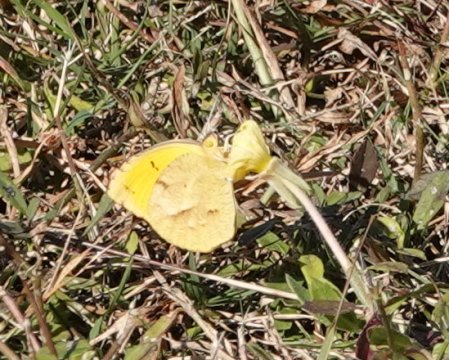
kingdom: Animalia
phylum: Arthropoda
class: Insecta
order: Lepidoptera
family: Pieridae
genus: Abaeis
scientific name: Abaeis nicippe
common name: Sleepy Orange
